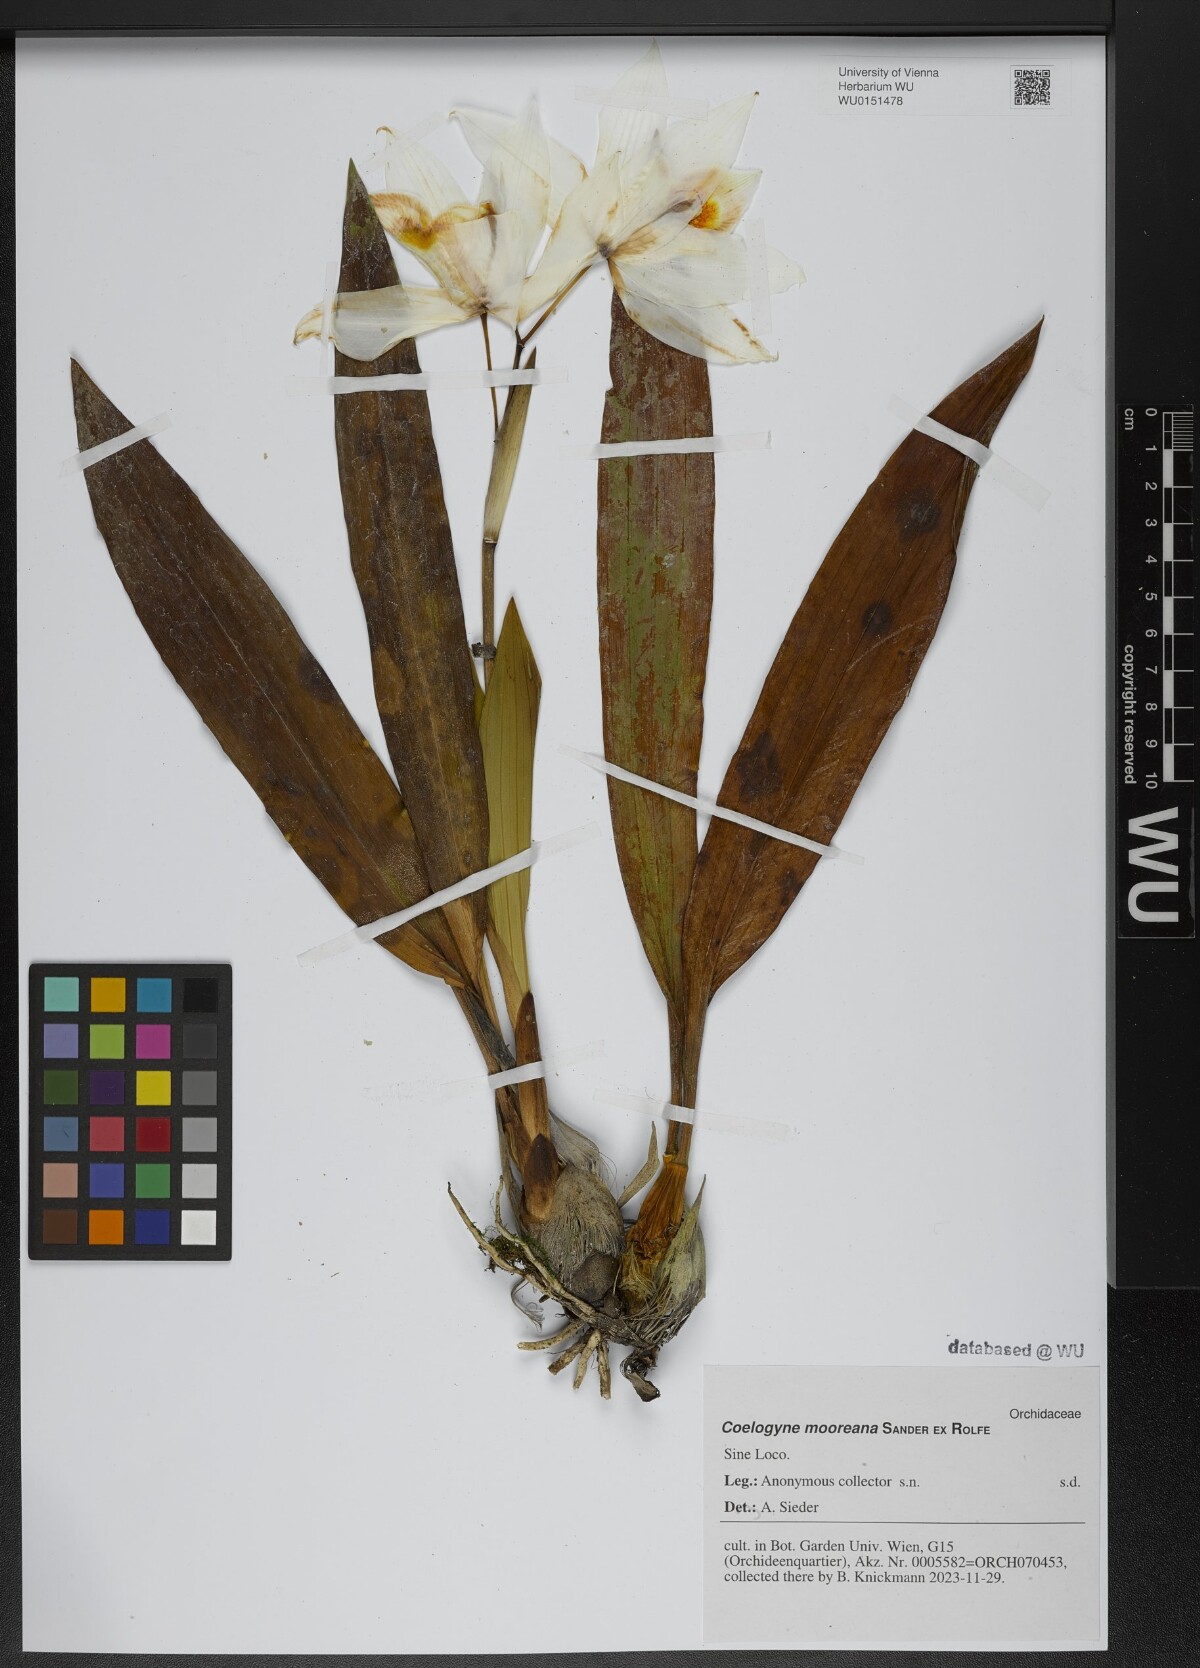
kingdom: Plantae
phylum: Tracheophyta
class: Liliopsida
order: Asparagales
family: Orchidaceae
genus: Coelogyne
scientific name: Coelogyne mooreana
